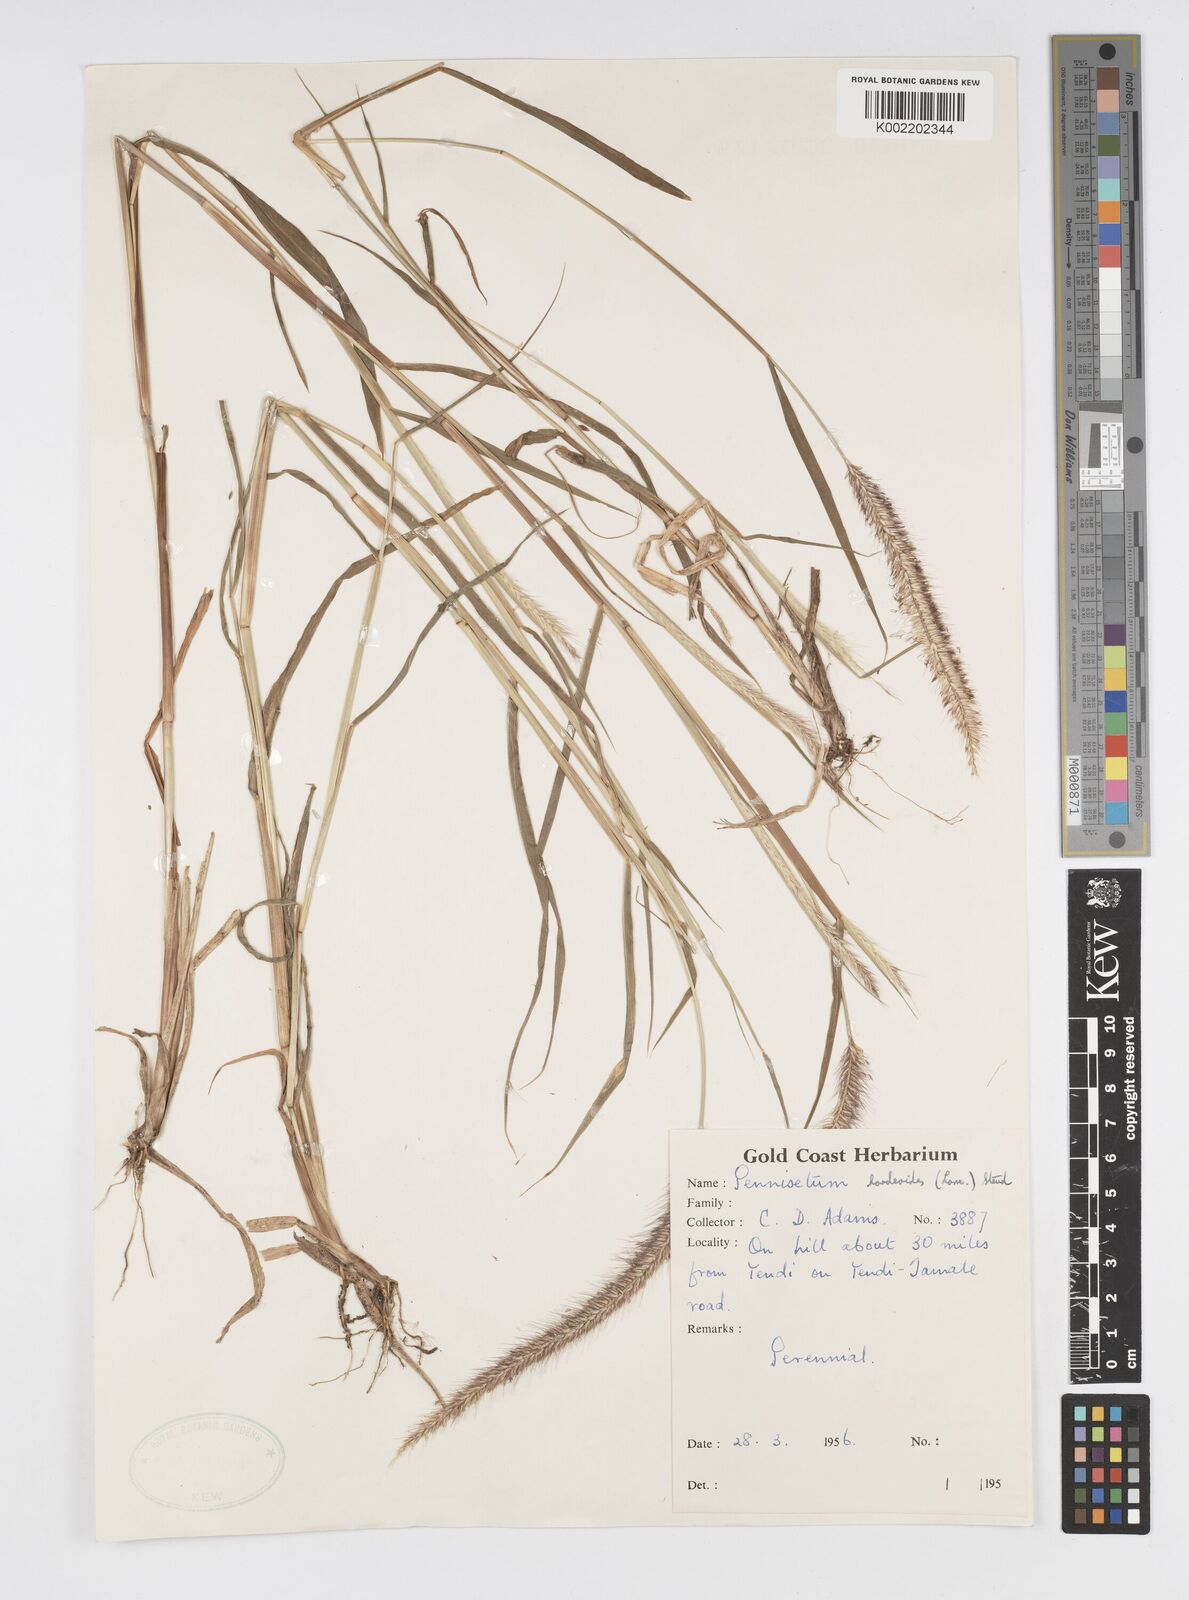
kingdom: Plantae
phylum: Tracheophyta
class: Liliopsida
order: Poales
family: Poaceae
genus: Cenchrus
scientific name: Cenchrus hordeoides
